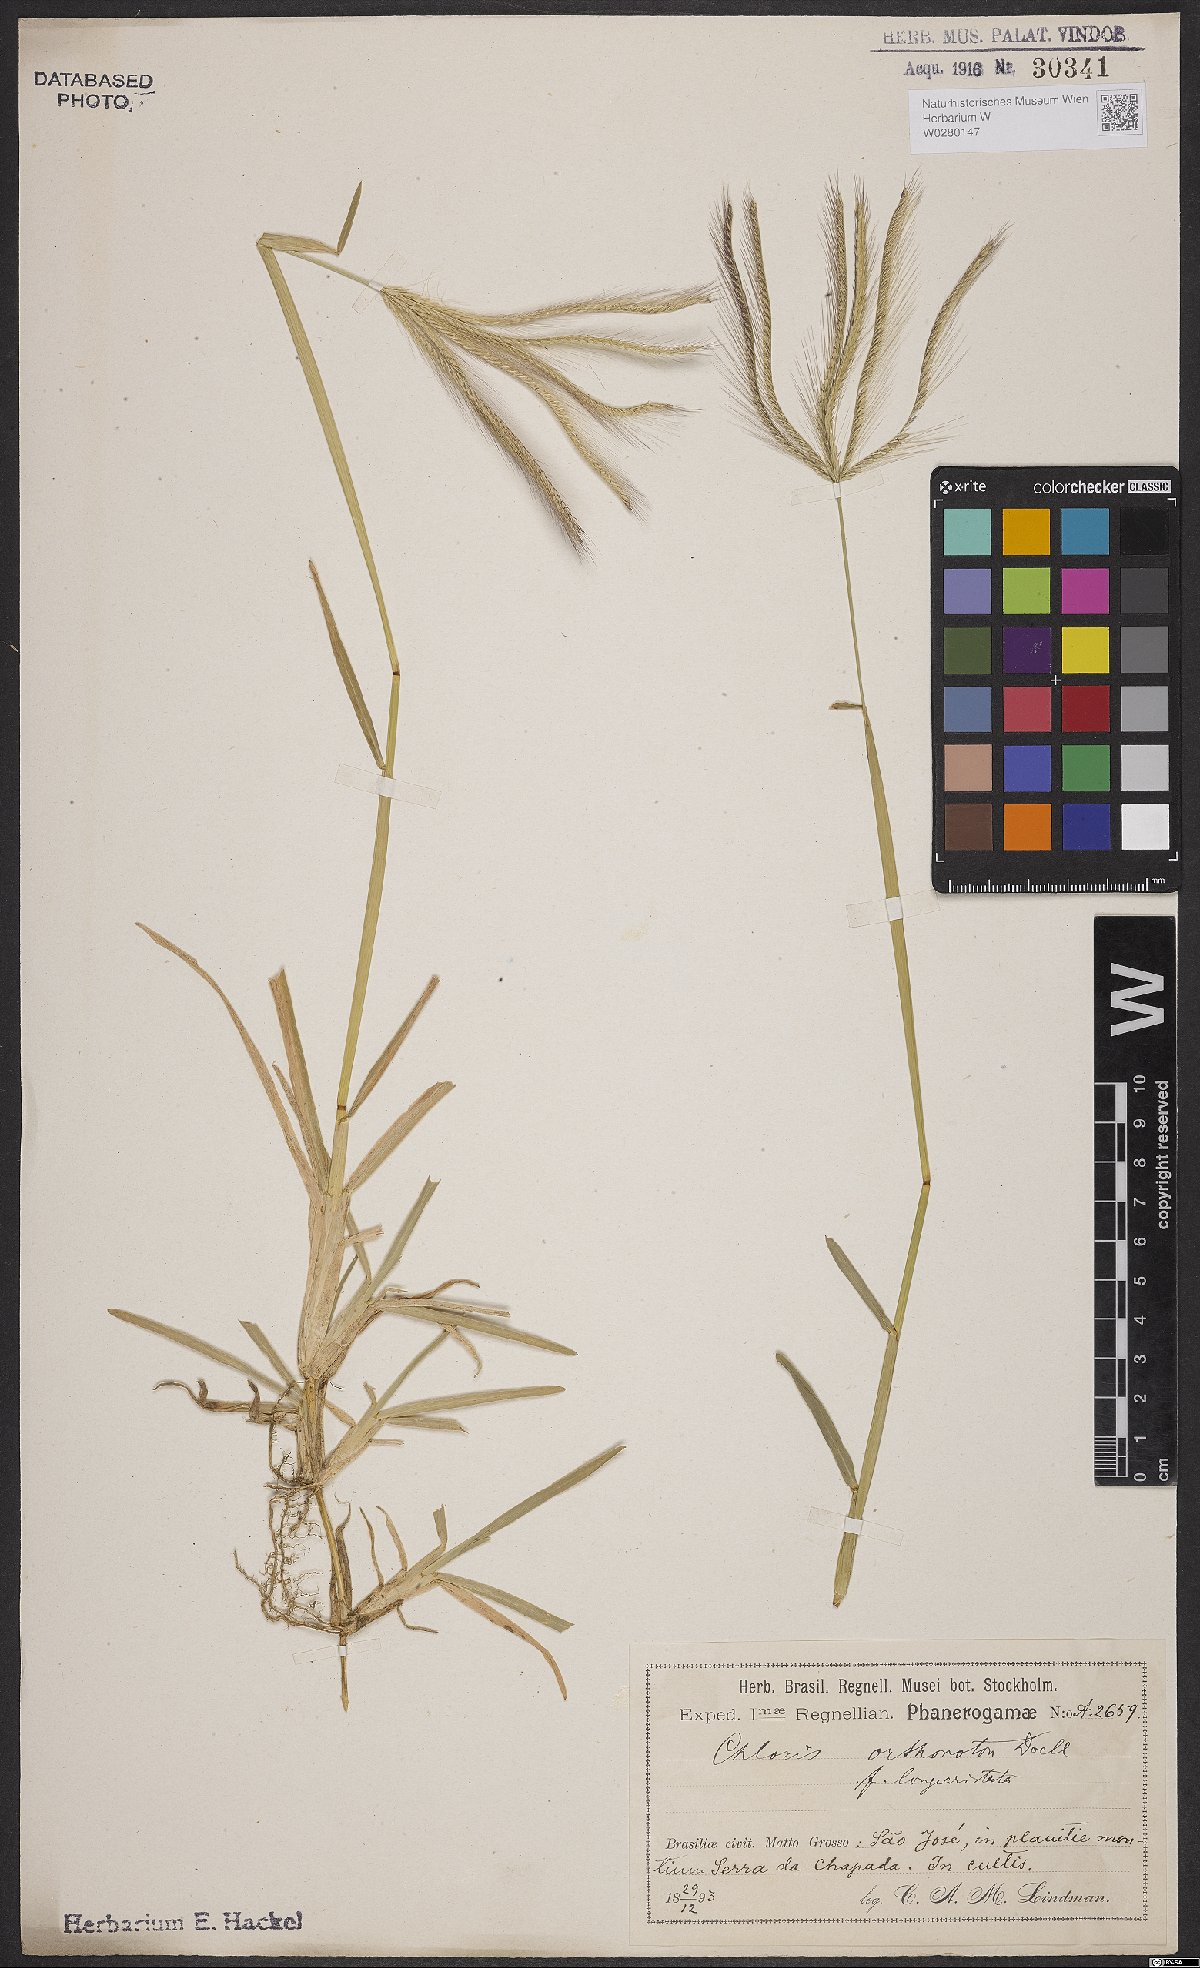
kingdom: Plantae
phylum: Tracheophyta
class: Liliopsida
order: Poales
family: Poaceae
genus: Chloris
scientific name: Chloris orthonoton
